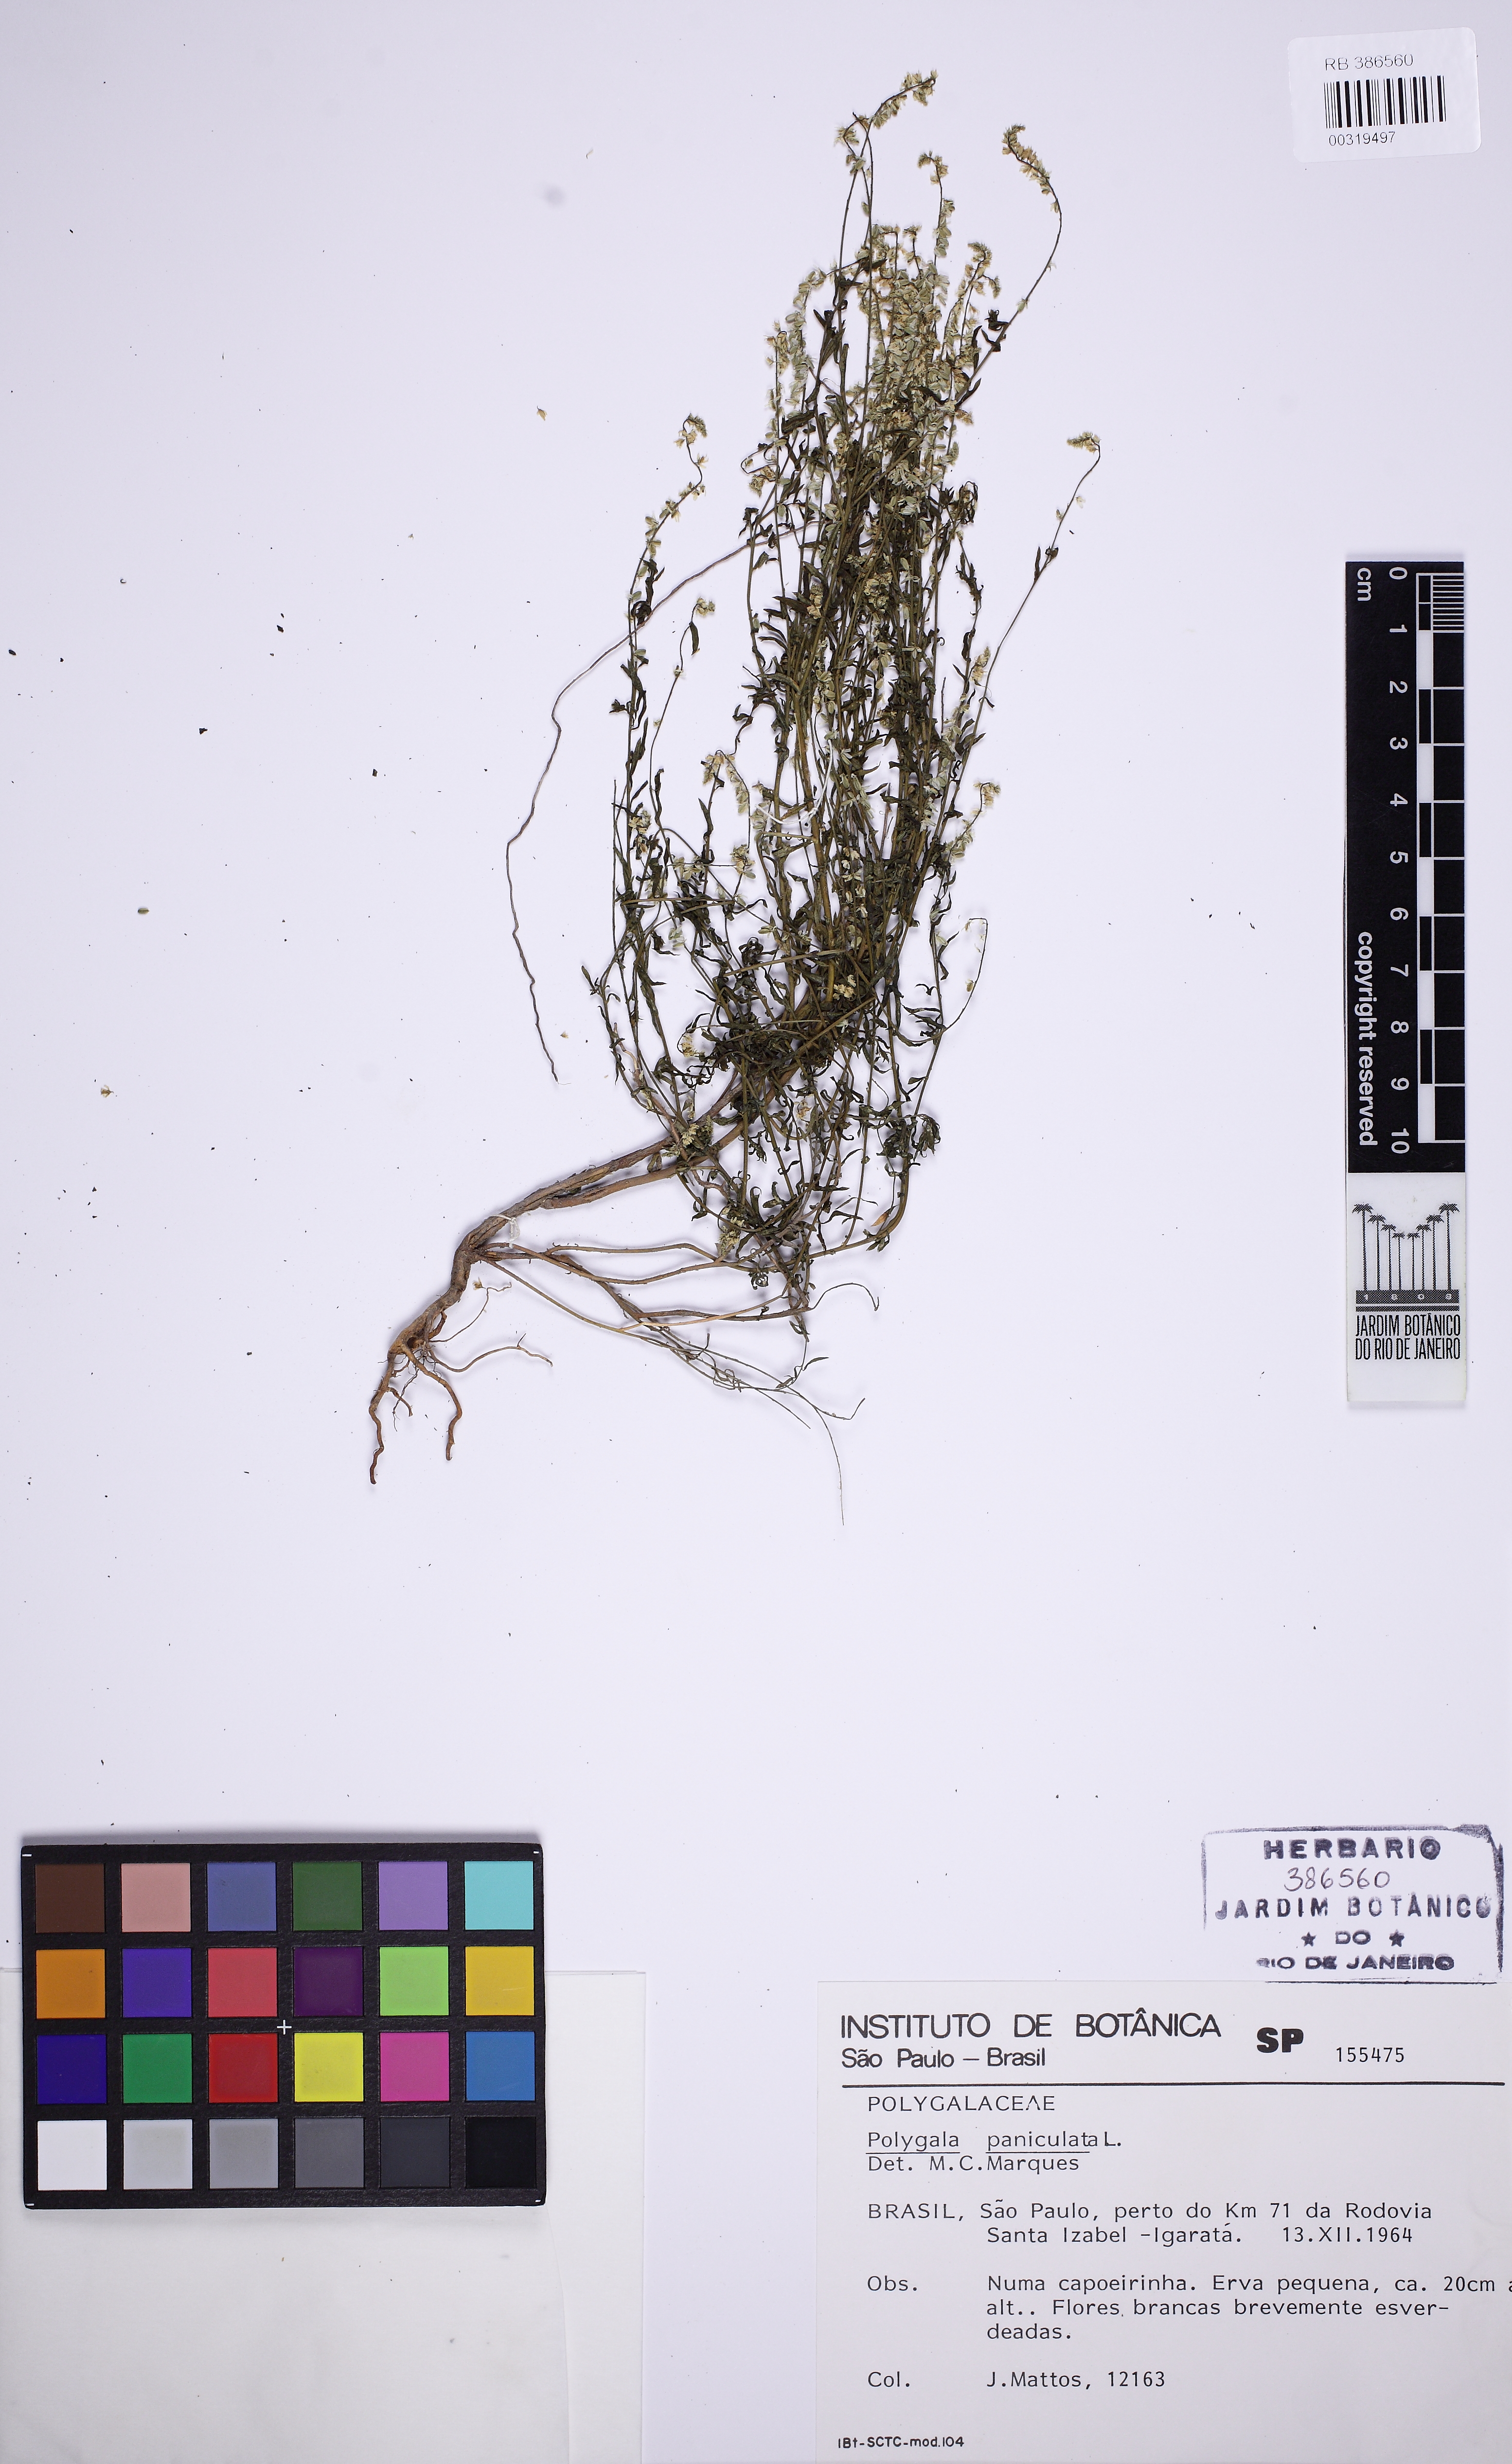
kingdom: Plantae
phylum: Tracheophyta
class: Magnoliopsida
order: Fabales
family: Polygalaceae
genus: Polygala
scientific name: Polygala paniculata
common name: Orosne
